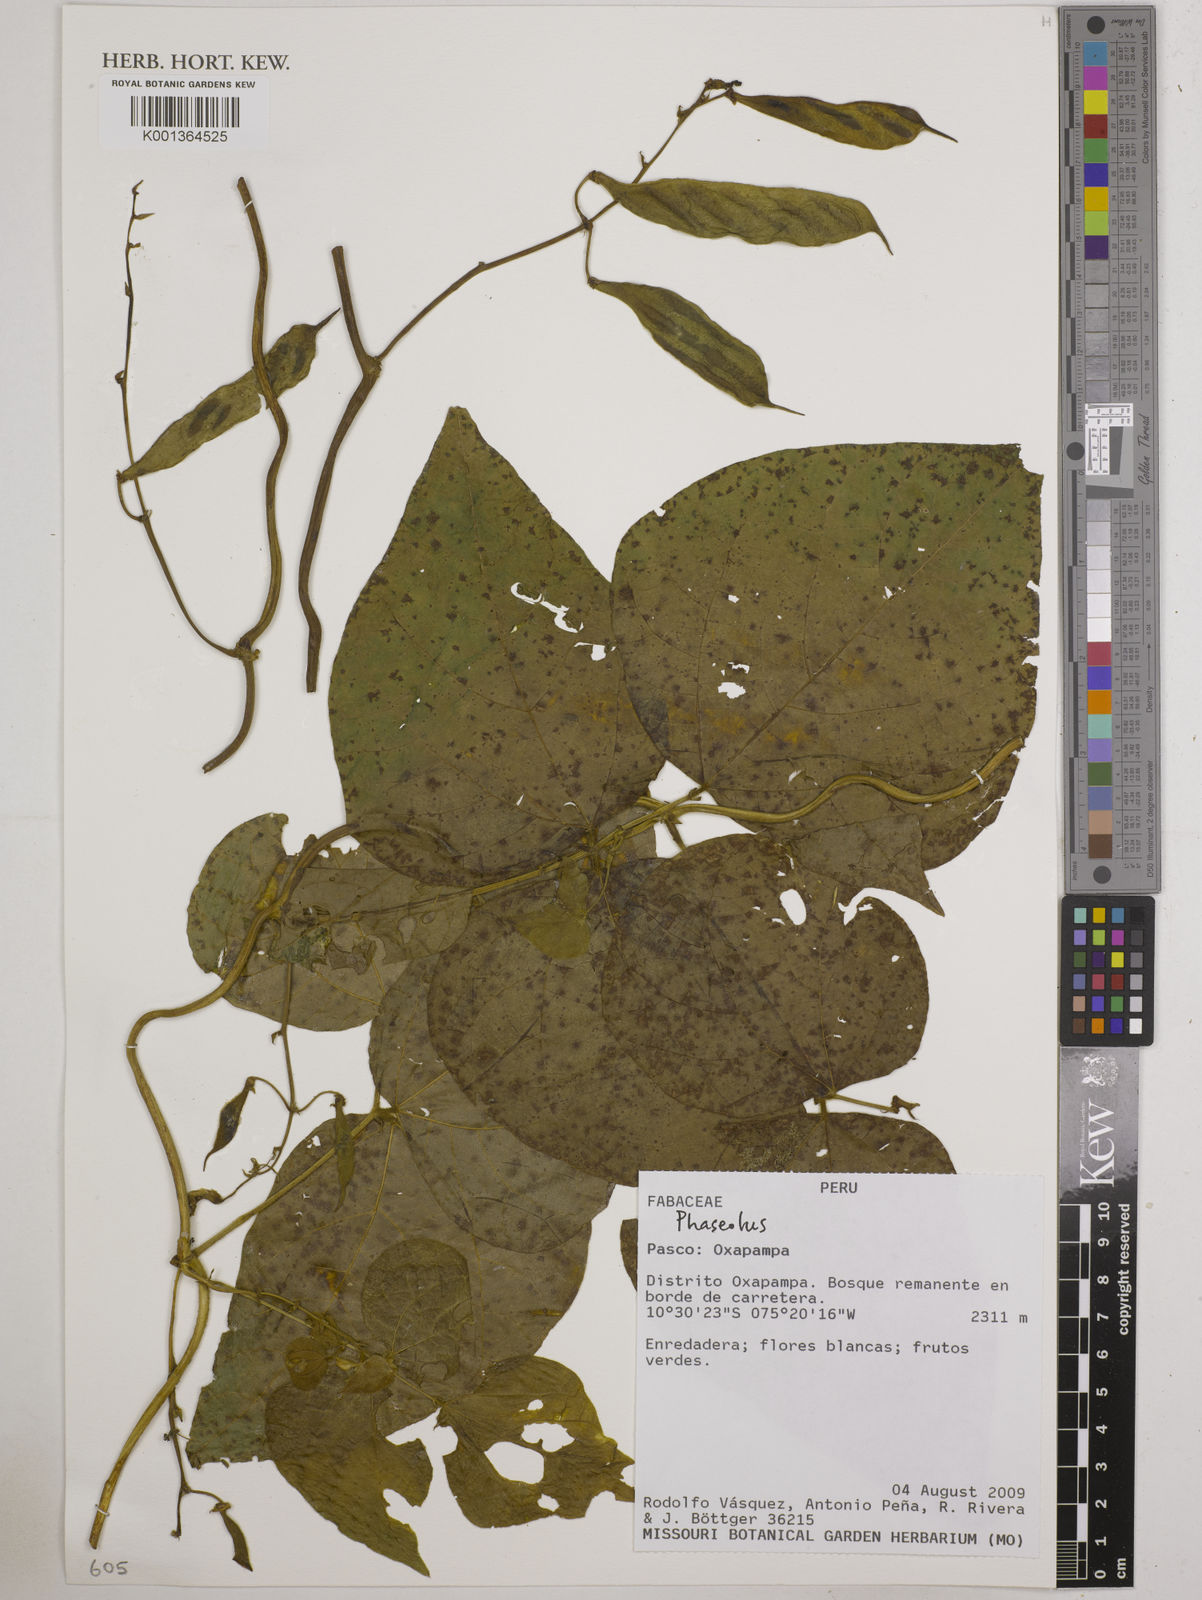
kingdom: Plantae
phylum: Tracheophyta
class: Magnoliopsida
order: Fabales
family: Fabaceae
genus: Phaseolus
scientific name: Phaseolus
